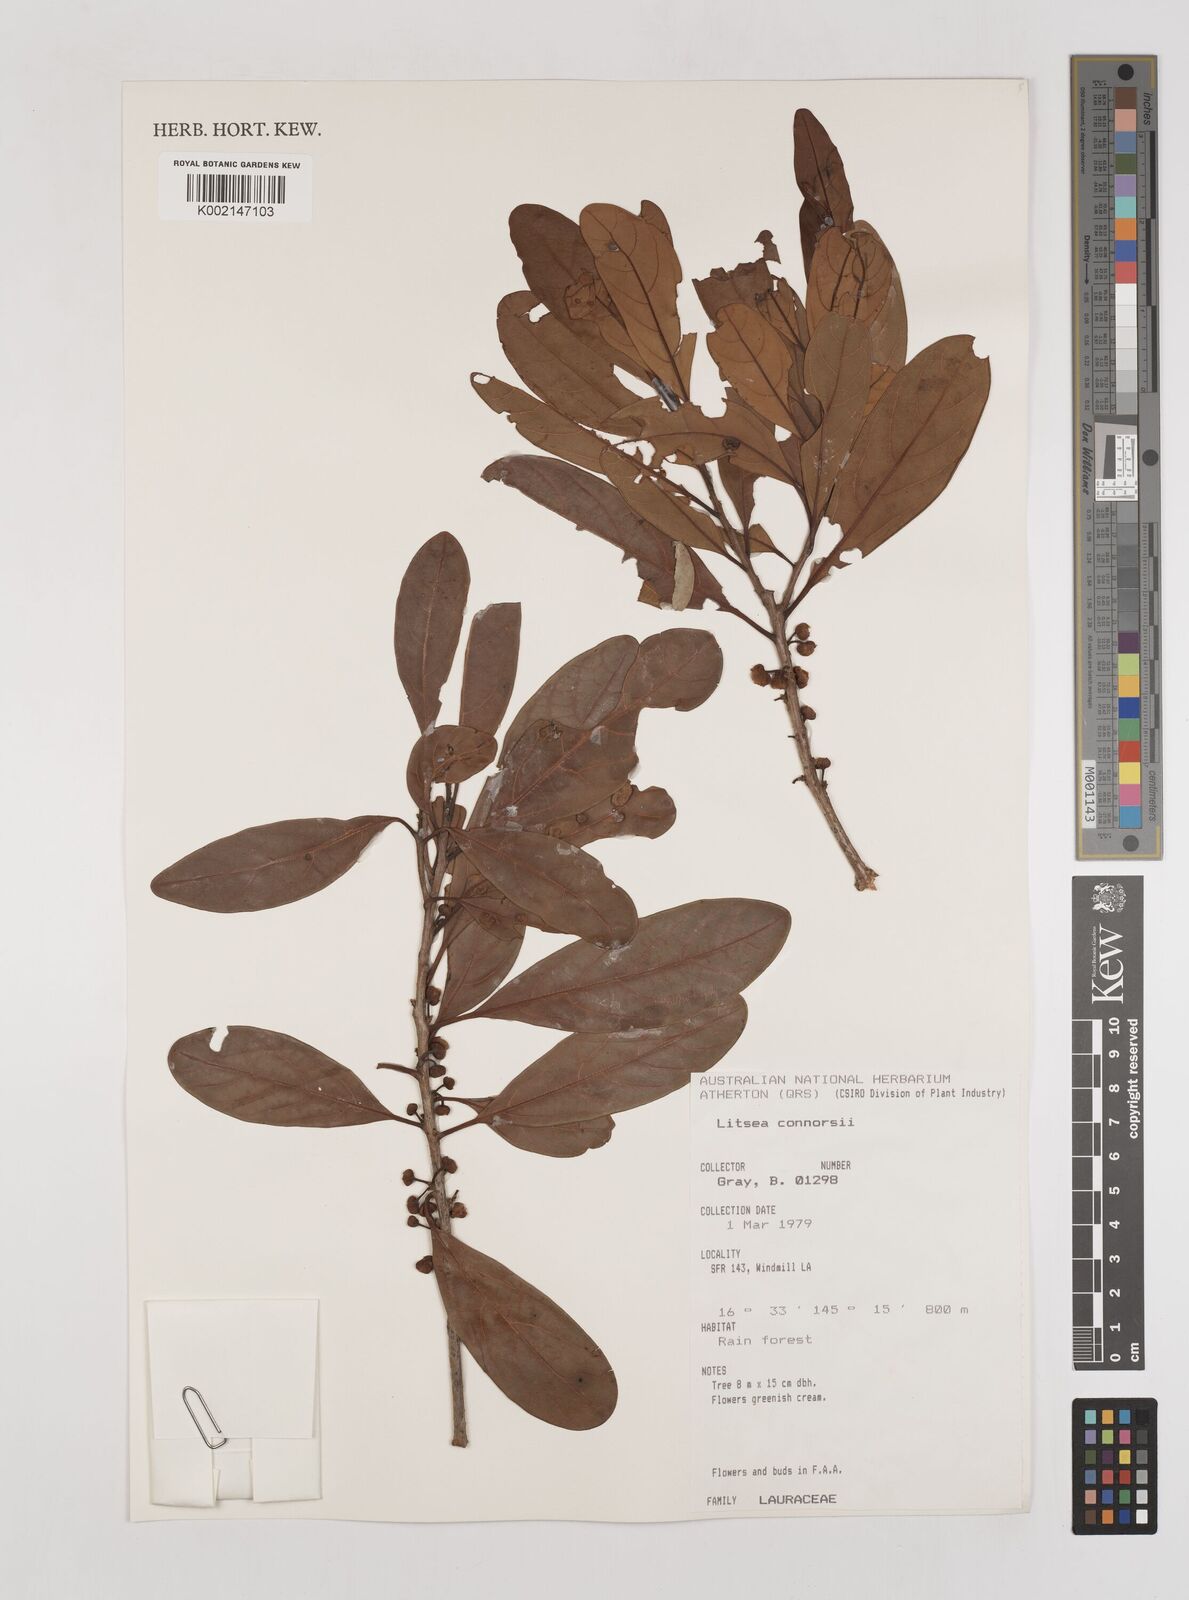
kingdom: Plantae
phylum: Tracheophyta
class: Magnoliopsida
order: Laurales
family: Lauraceae
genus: Litsea
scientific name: Litsea connorsii
